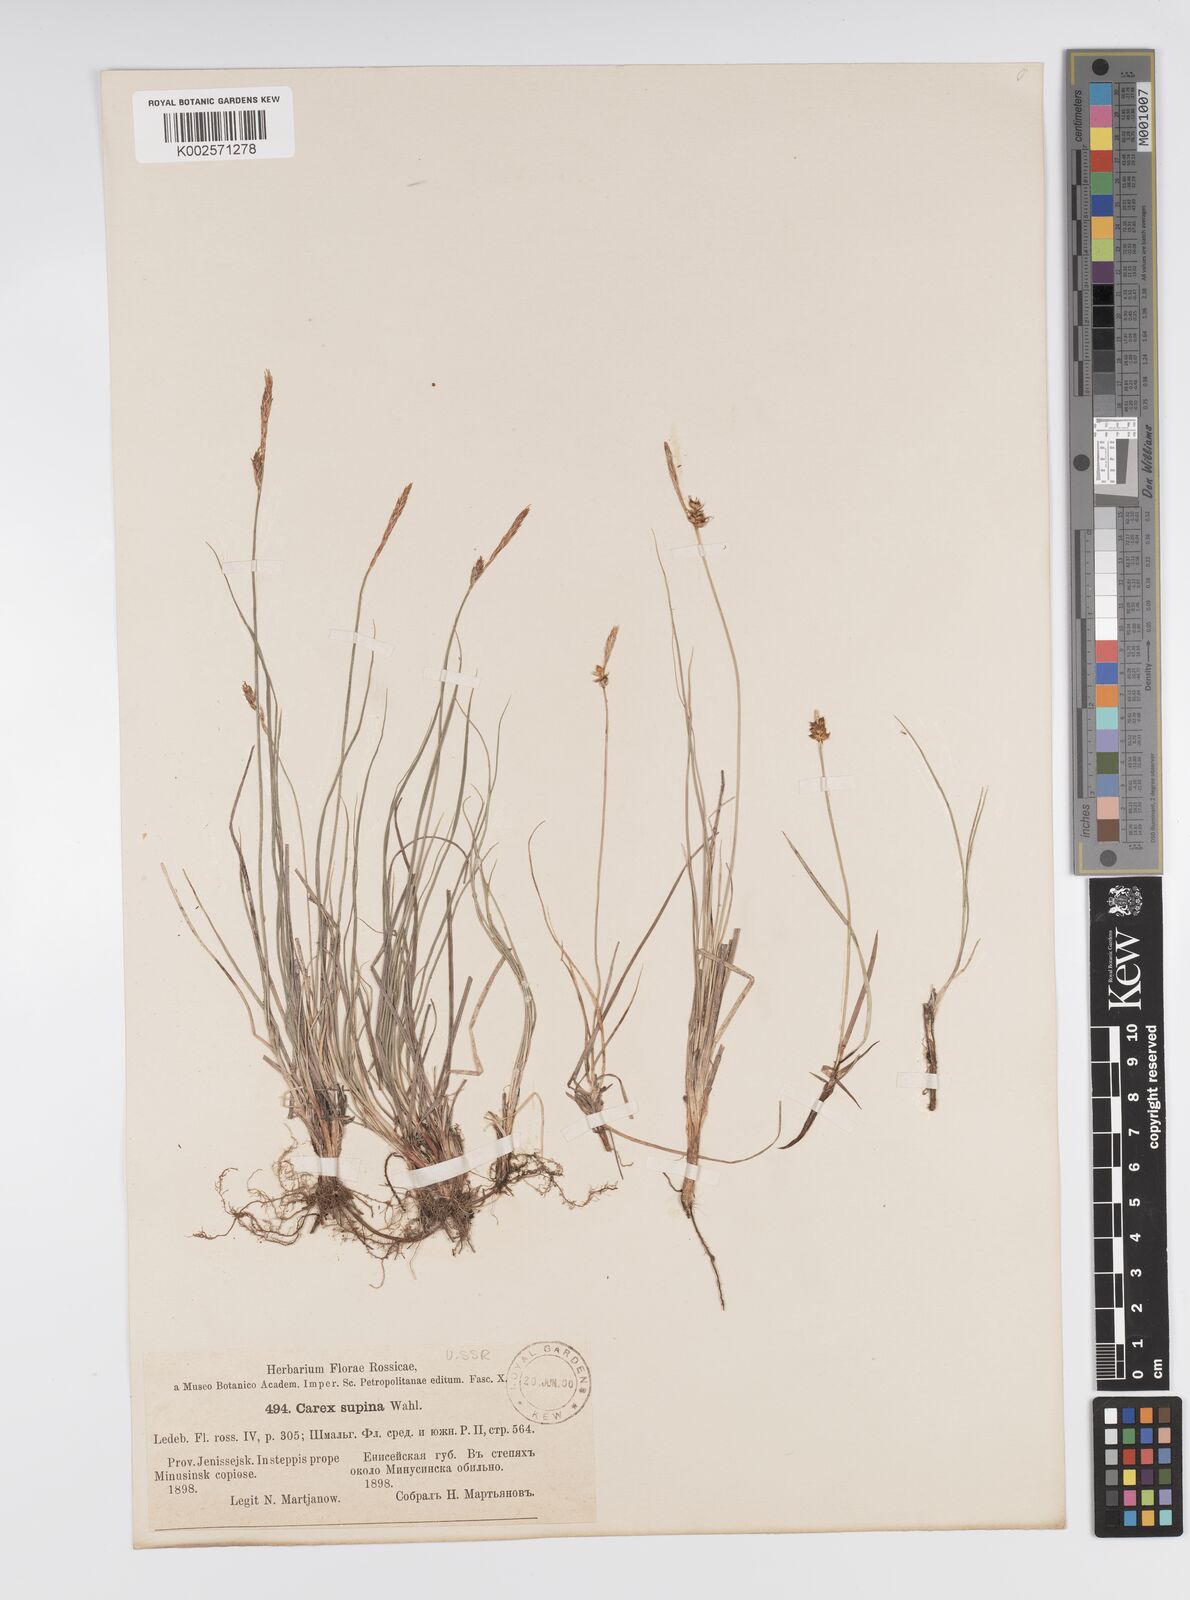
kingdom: Plantae
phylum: Tracheophyta
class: Liliopsida
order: Poales
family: Cyperaceae
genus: Carex
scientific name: Carex supina
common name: Lying-back sedge
